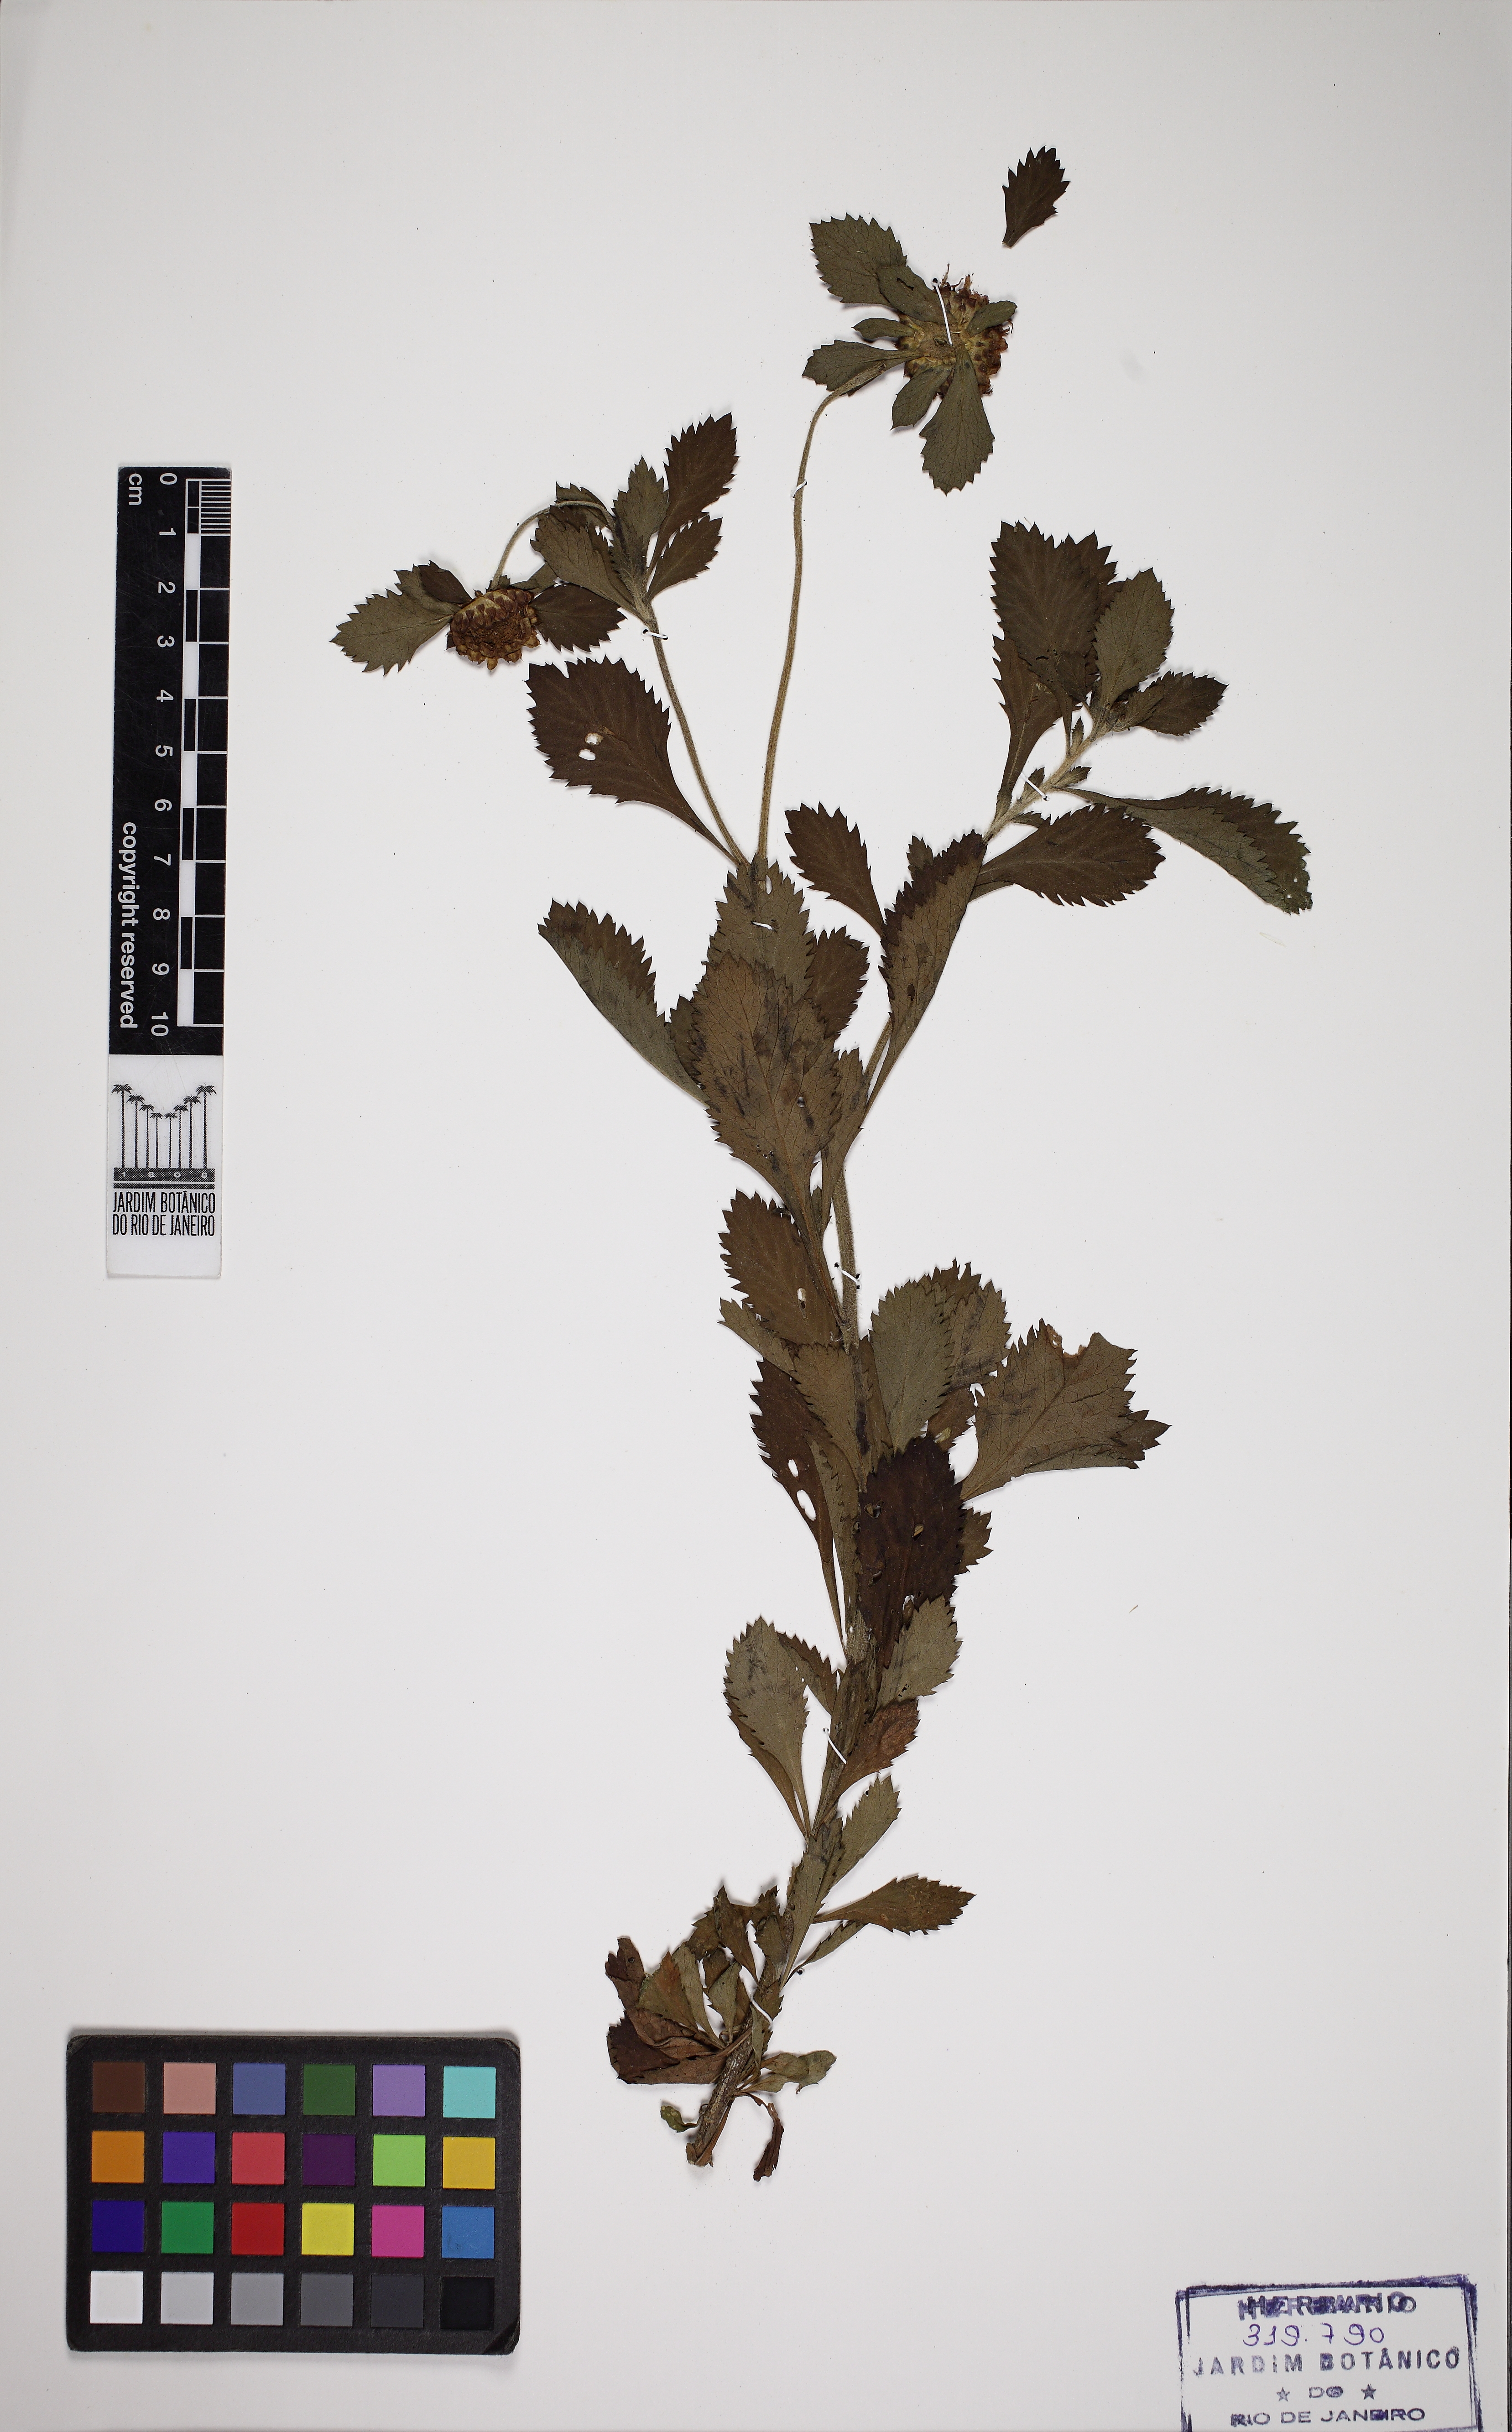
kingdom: Plantae
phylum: Tracheophyta
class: Magnoliopsida
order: Asterales
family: Asteraceae
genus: Centratherum
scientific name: Centratherum punctatum
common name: Larkdaisy
